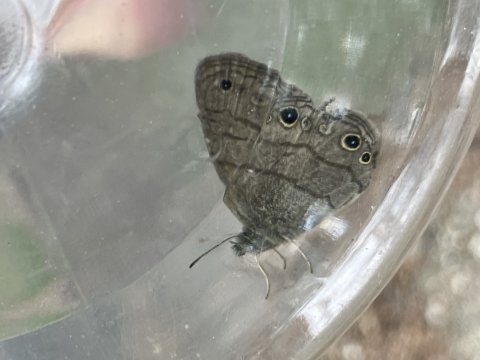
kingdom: Animalia
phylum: Arthropoda
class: Insecta
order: Lepidoptera
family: Nymphalidae
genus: Hermeuptychia
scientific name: Hermeuptychia hermes
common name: Carolina Satyr
